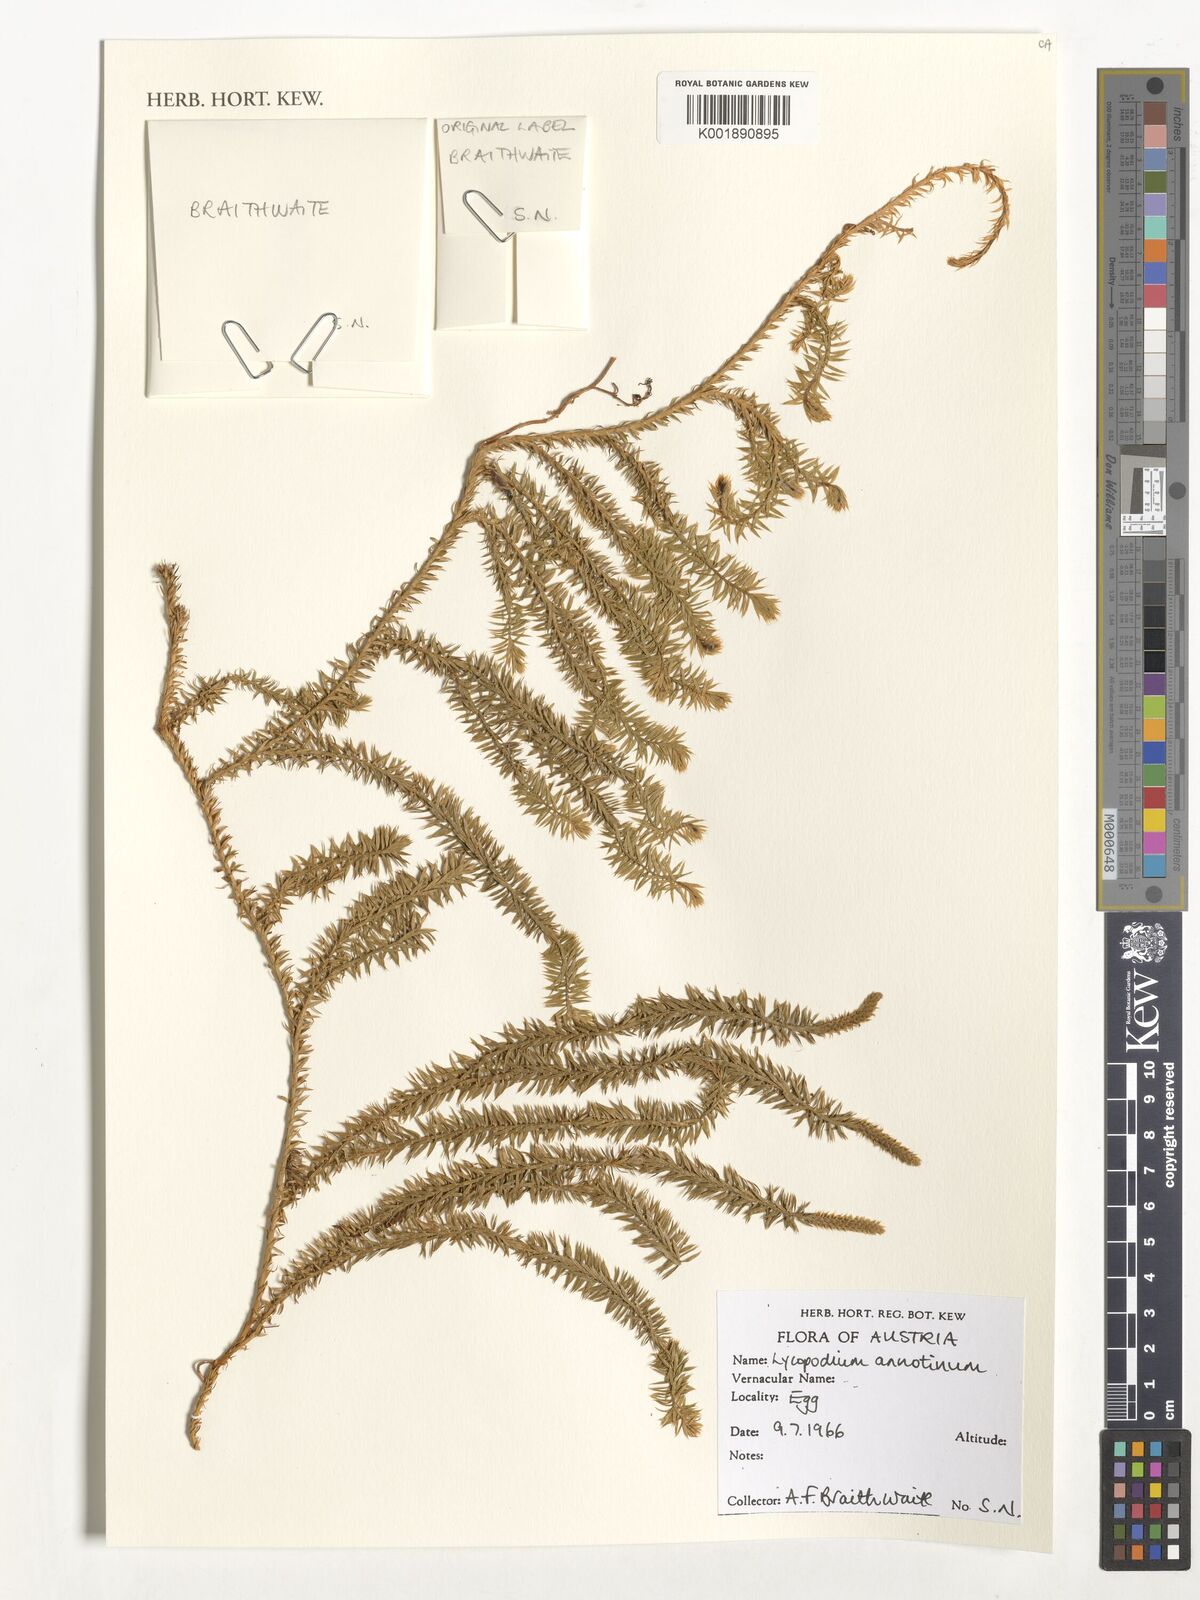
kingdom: Plantae
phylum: Tracheophyta
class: Lycopodiopsida
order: Lycopodiales
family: Lycopodiaceae
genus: Spinulum
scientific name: Spinulum annotinum
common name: Interrupted club-moss
